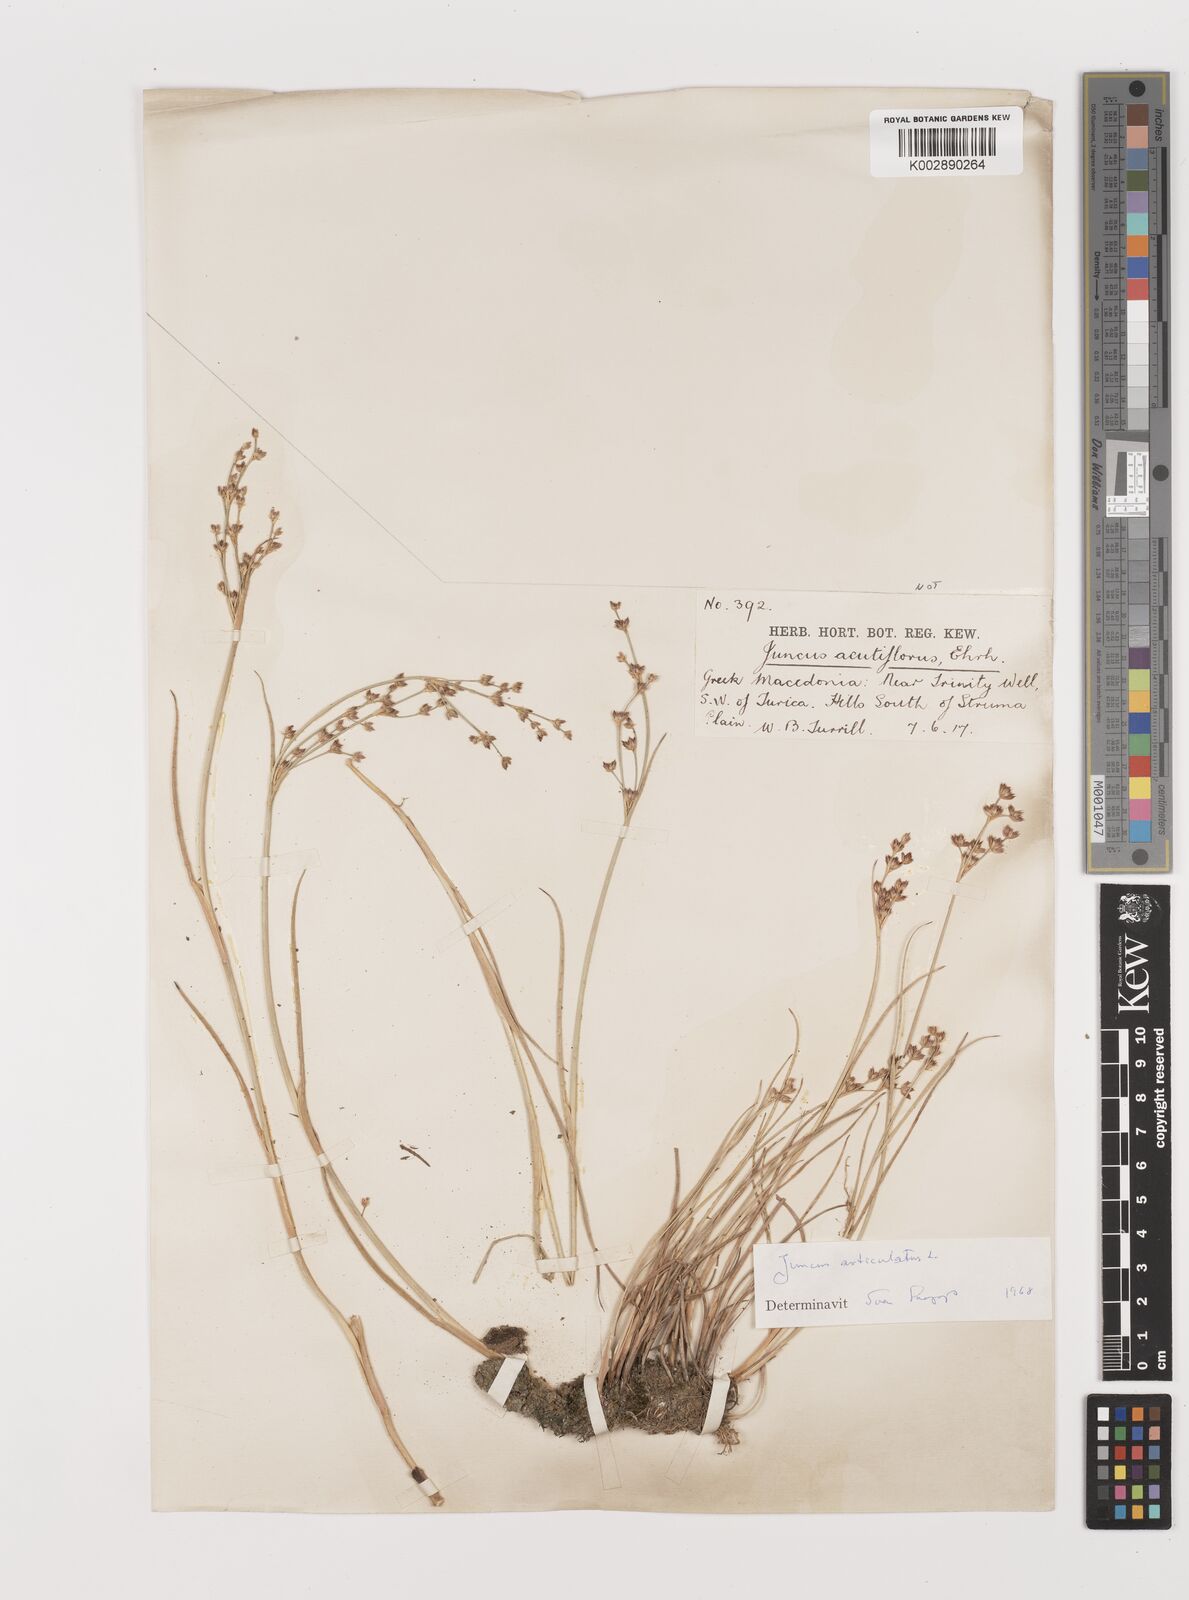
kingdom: Plantae
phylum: Tracheophyta
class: Liliopsida
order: Poales
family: Juncaceae
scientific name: Juncaceae
